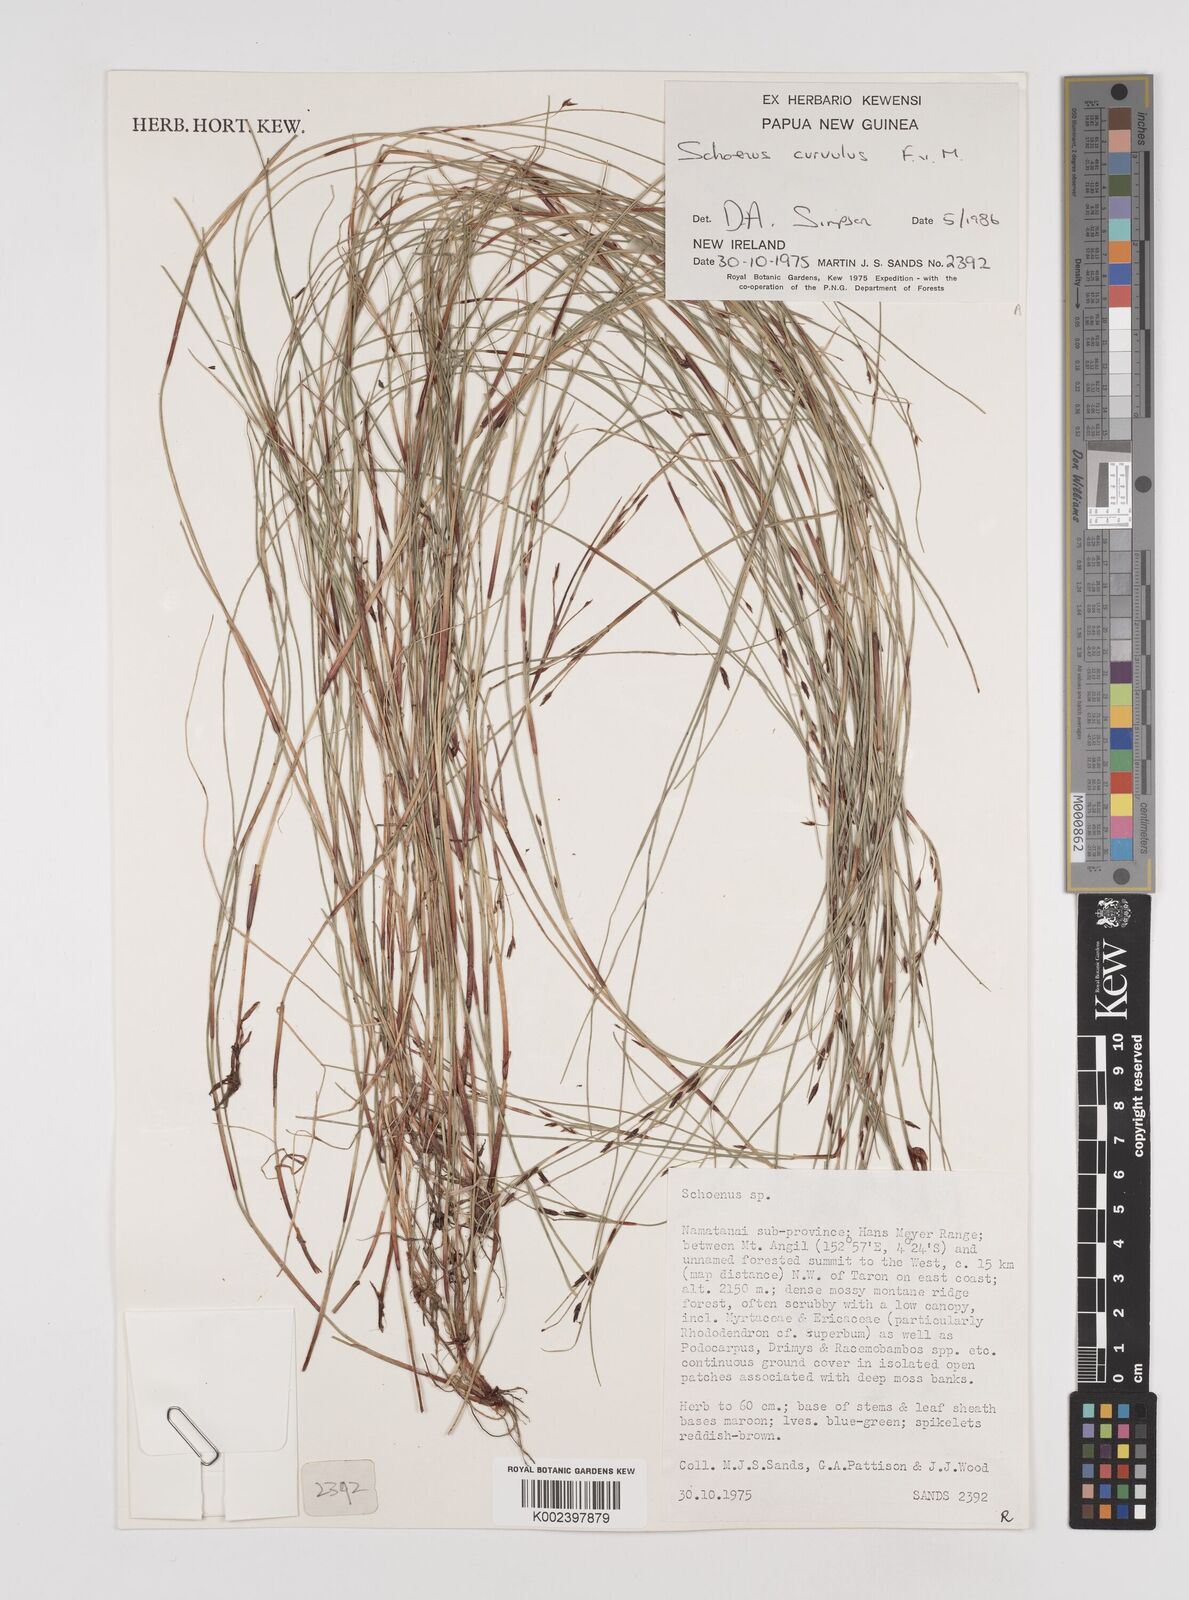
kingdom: Plantae
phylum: Tracheophyta
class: Liliopsida
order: Poales
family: Cyperaceae
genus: Schoenus
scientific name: Schoenus curvulus
